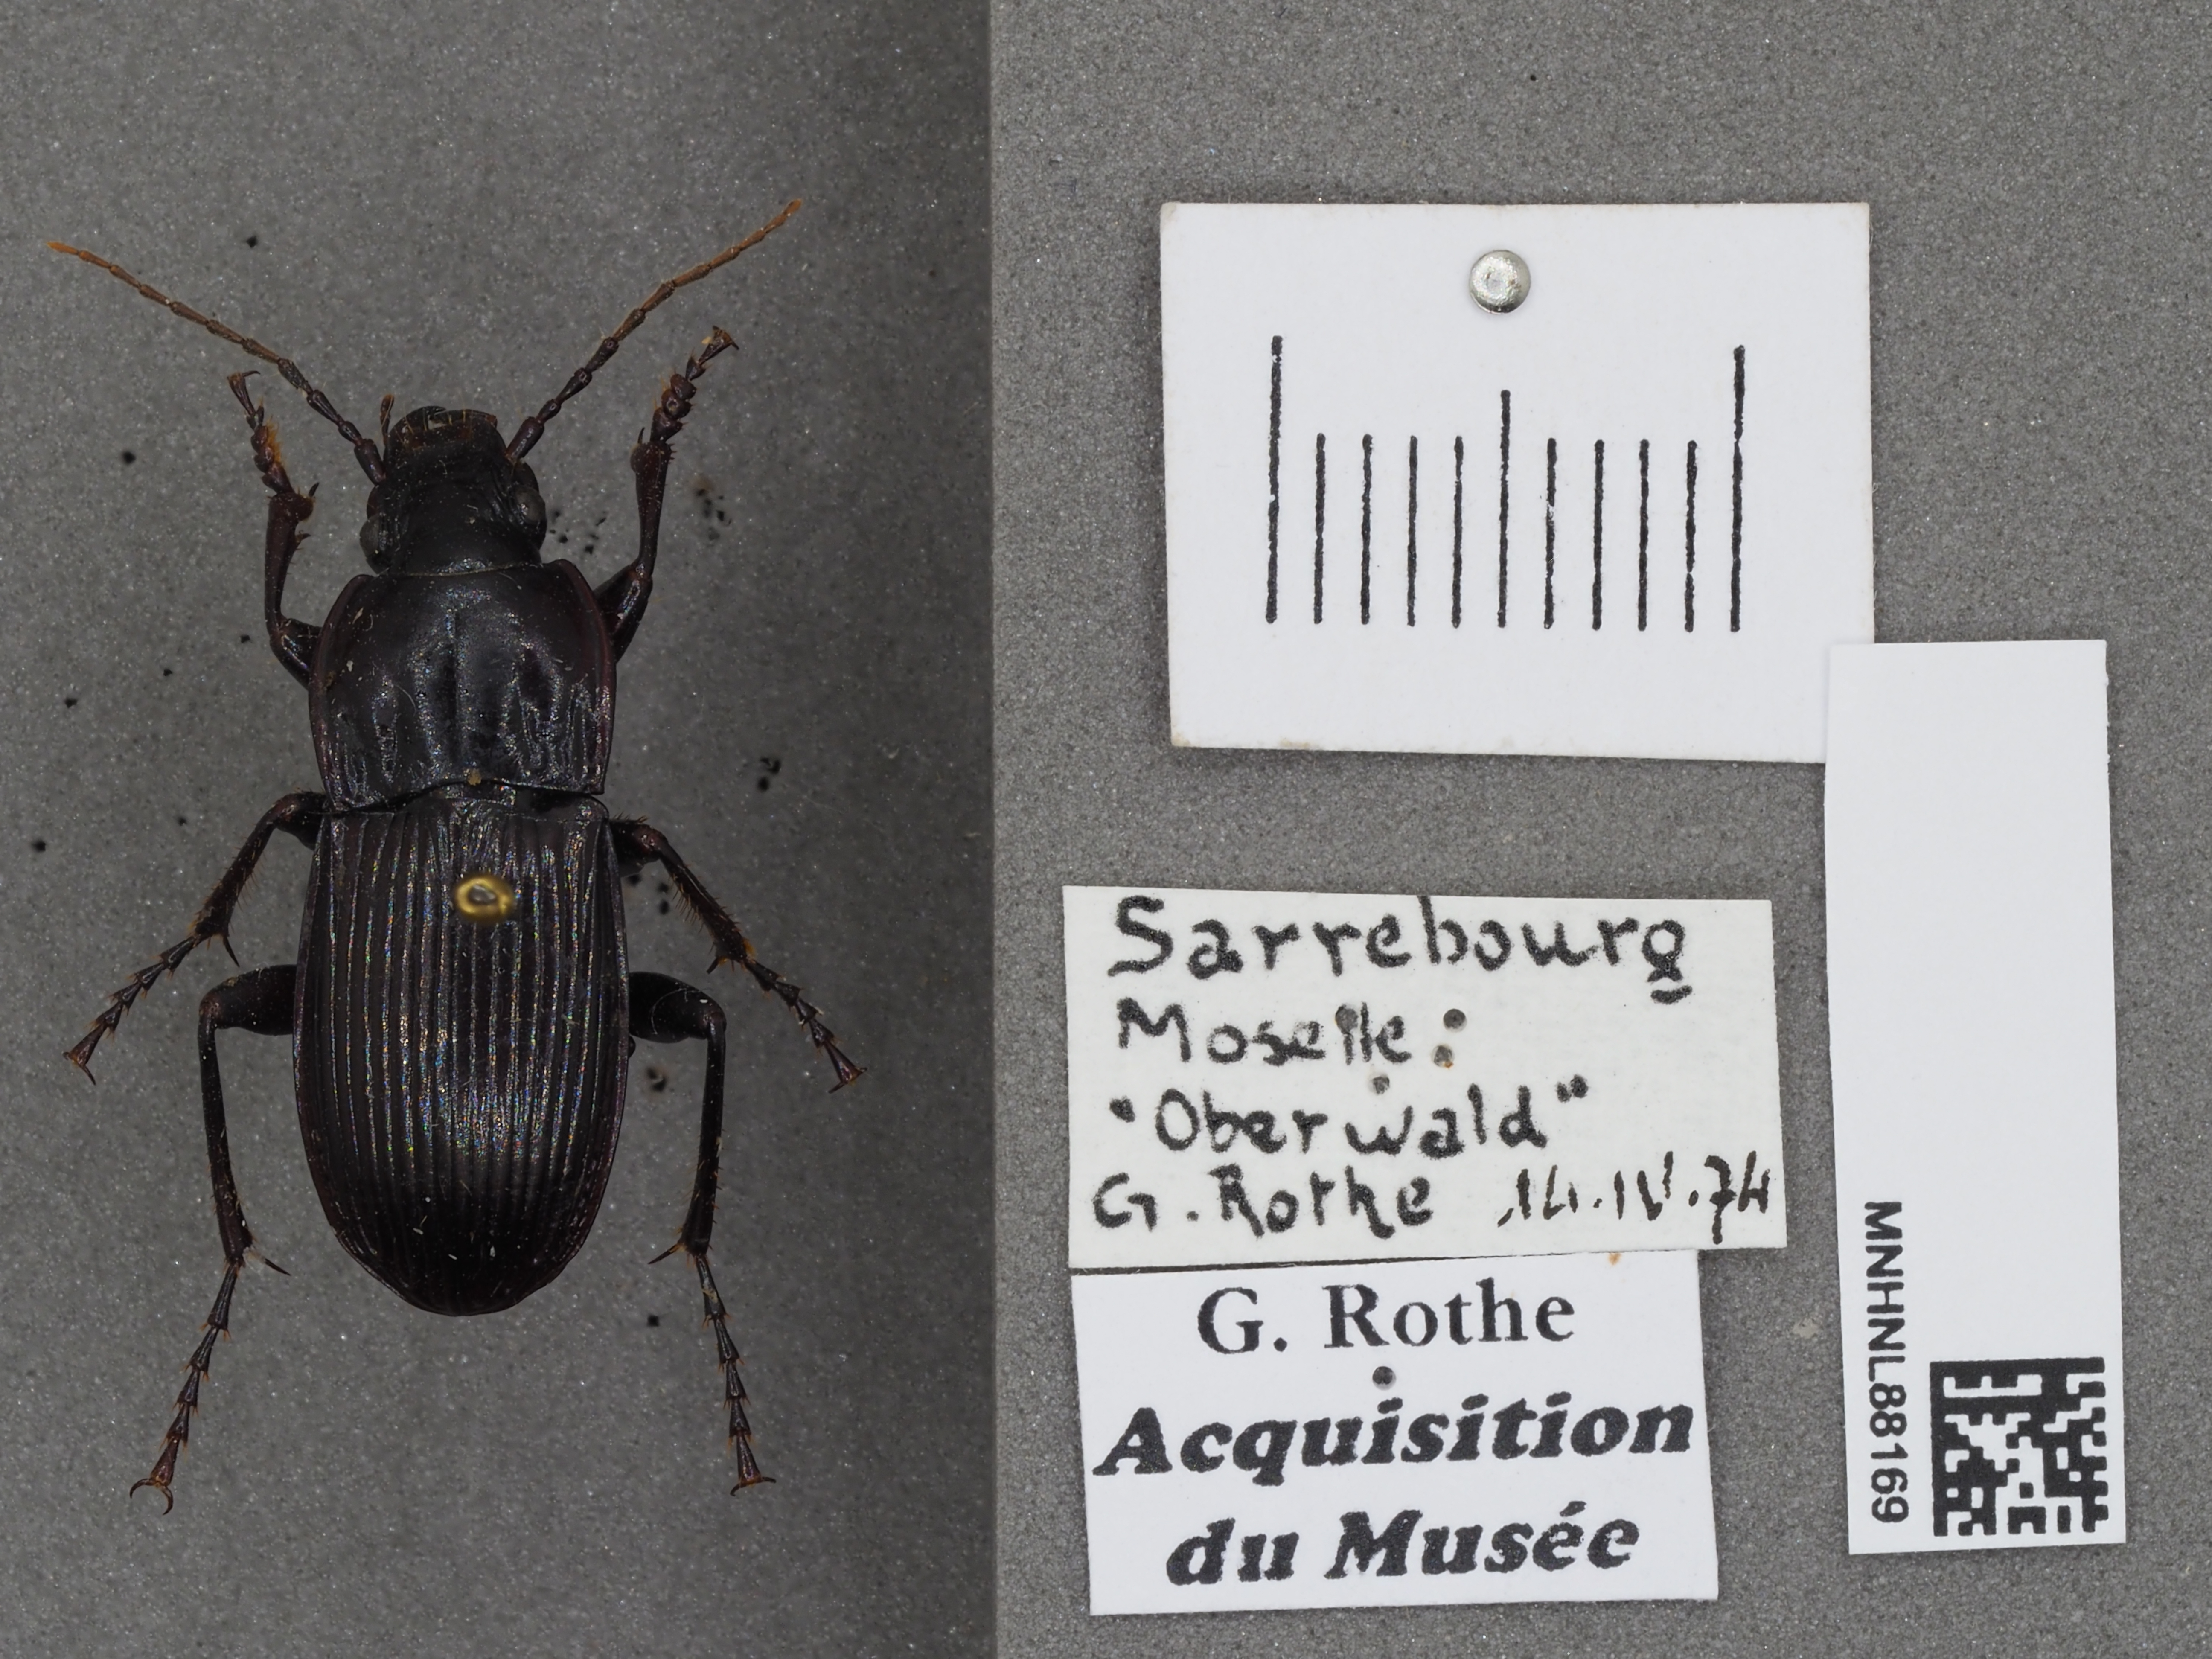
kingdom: Animalia
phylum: Arthropoda
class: Insecta
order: Coleoptera
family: Carabidae
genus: Abax
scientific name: Abax parallelepipedus
